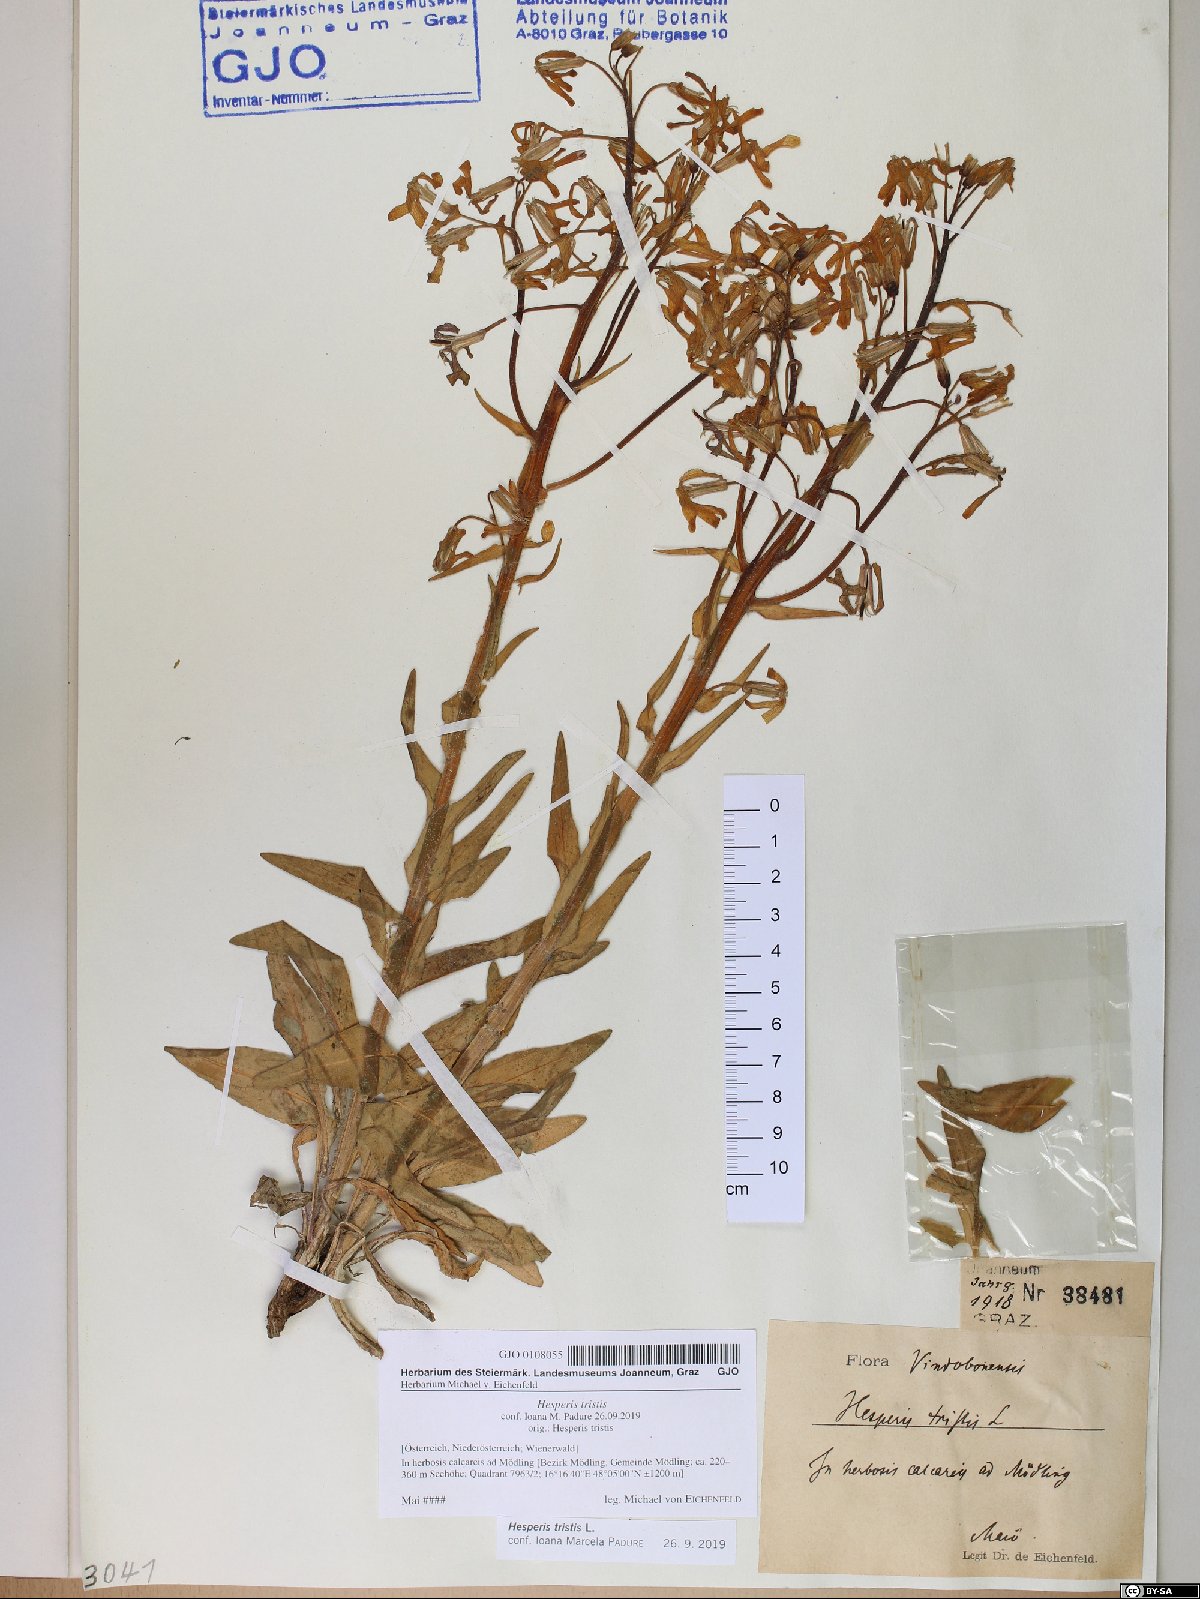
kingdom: Plantae
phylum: Tracheophyta
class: Magnoliopsida
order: Brassicales
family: Brassicaceae
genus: Hesperis
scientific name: Hesperis tristis
